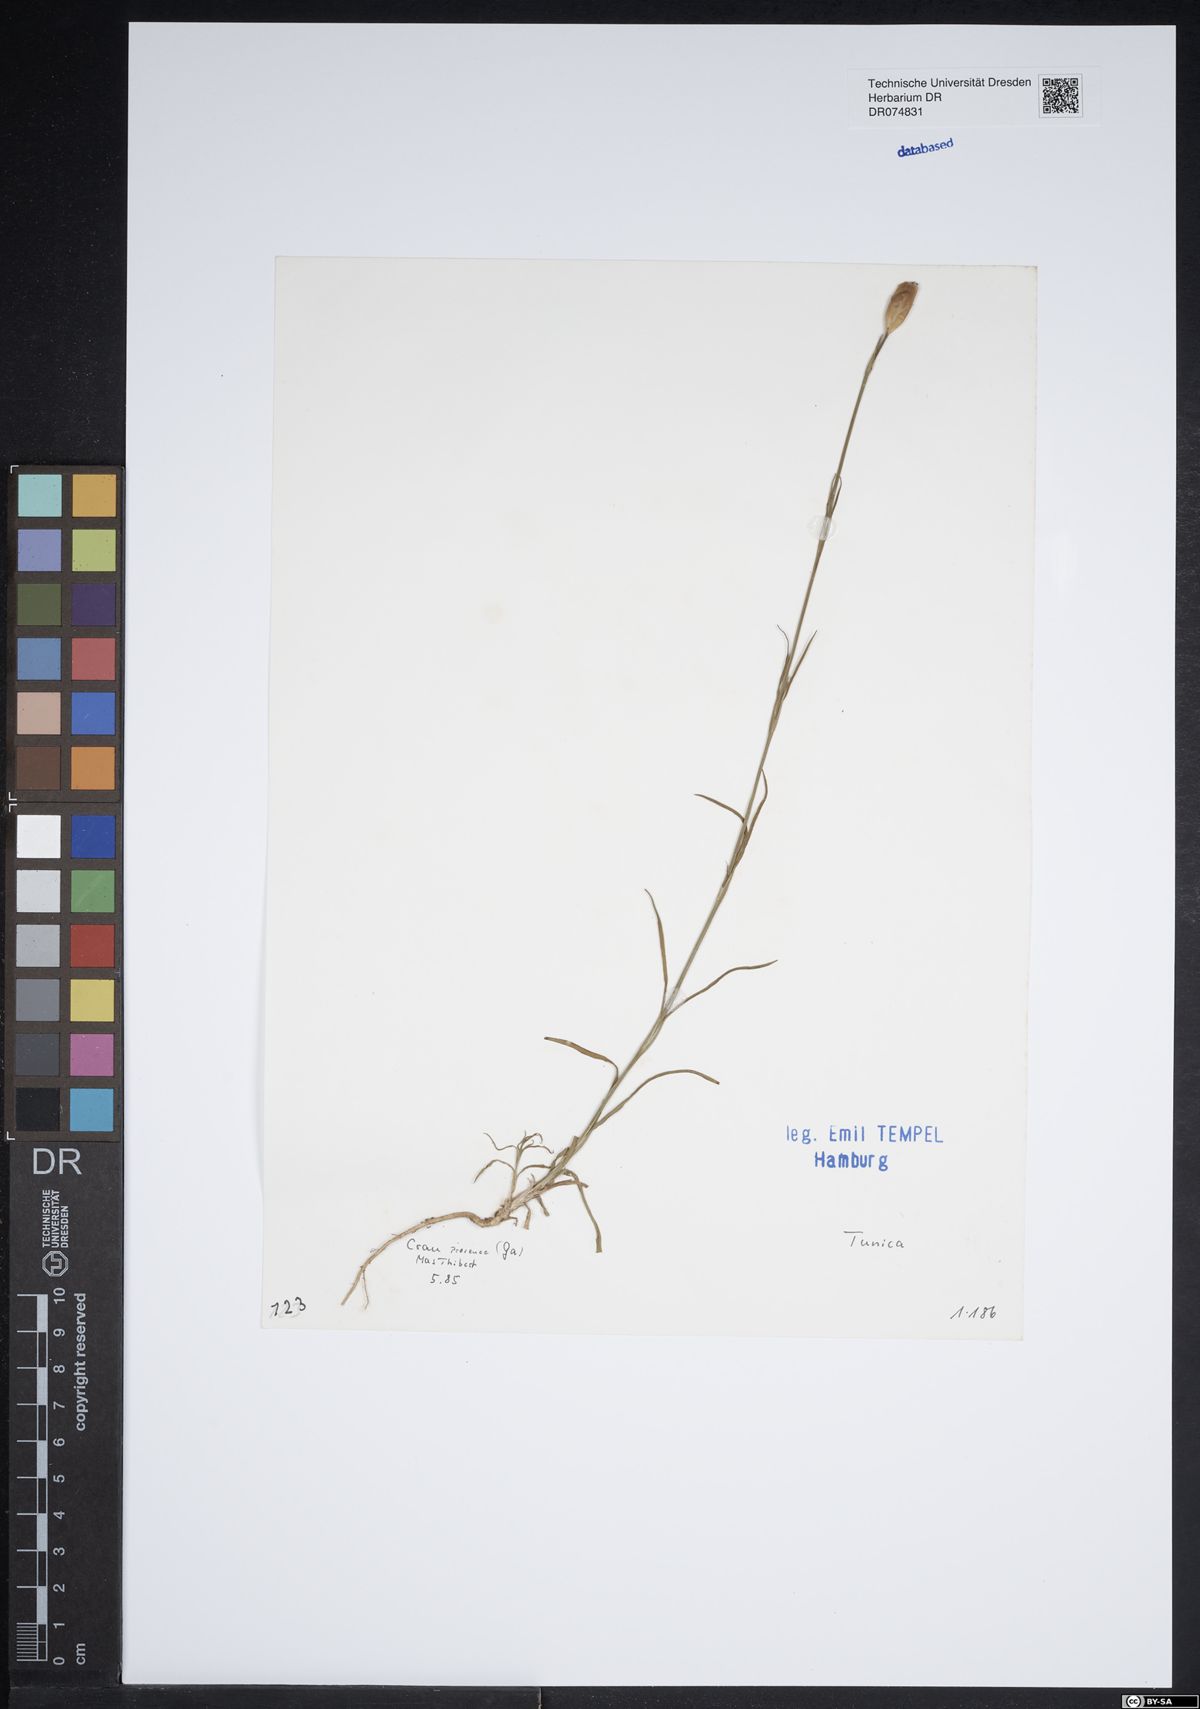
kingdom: Plantae
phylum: Tracheophyta
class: Magnoliopsida
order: Caryophyllales
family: Caryophyllaceae
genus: Tunica
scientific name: Tunica
